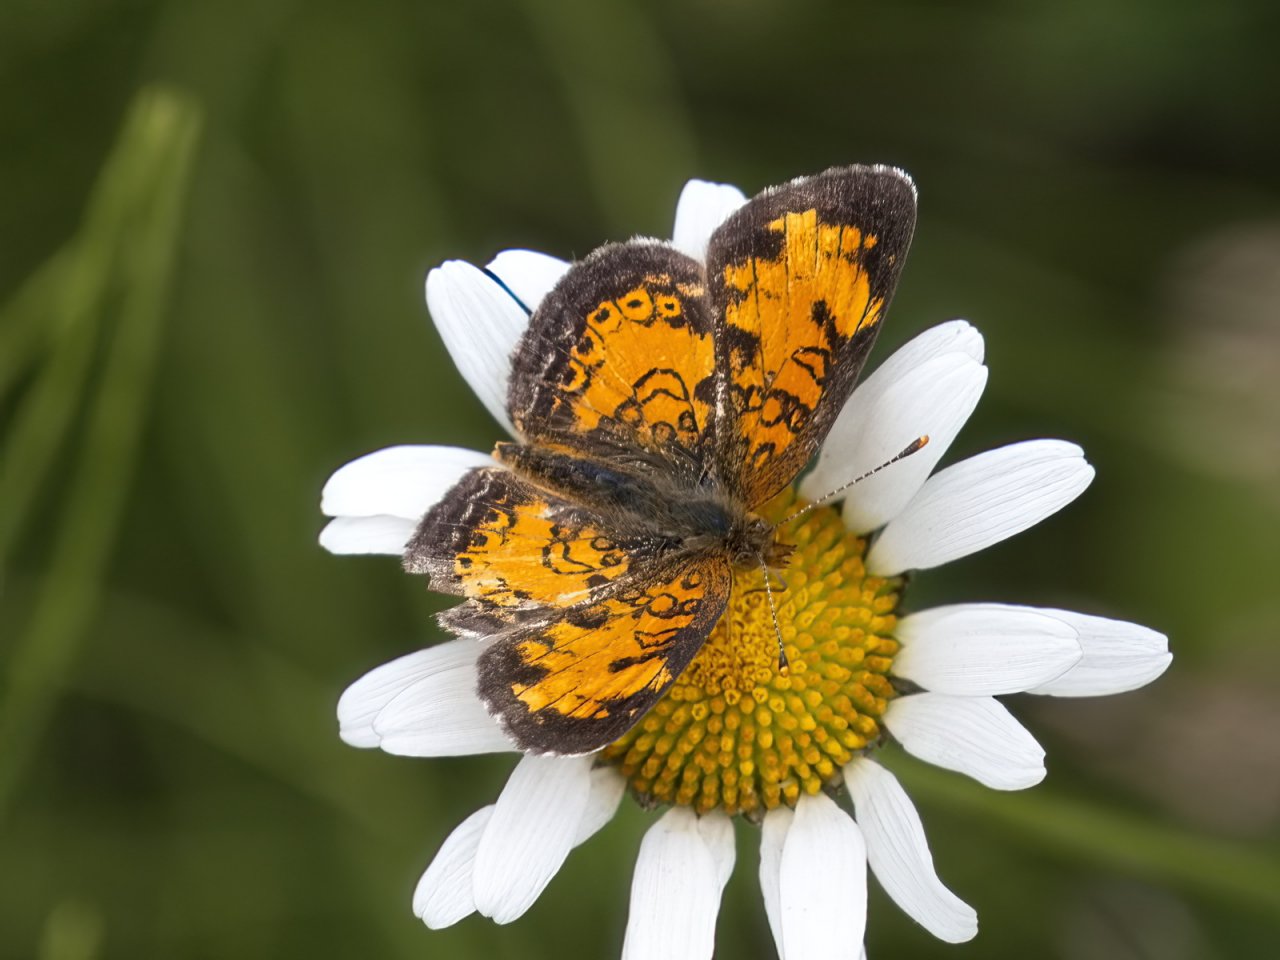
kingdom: Animalia
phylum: Arthropoda
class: Insecta
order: Lepidoptera
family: Nymphalidae
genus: Phyciodes
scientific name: Phyciodes tharos
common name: Northern Crescent
